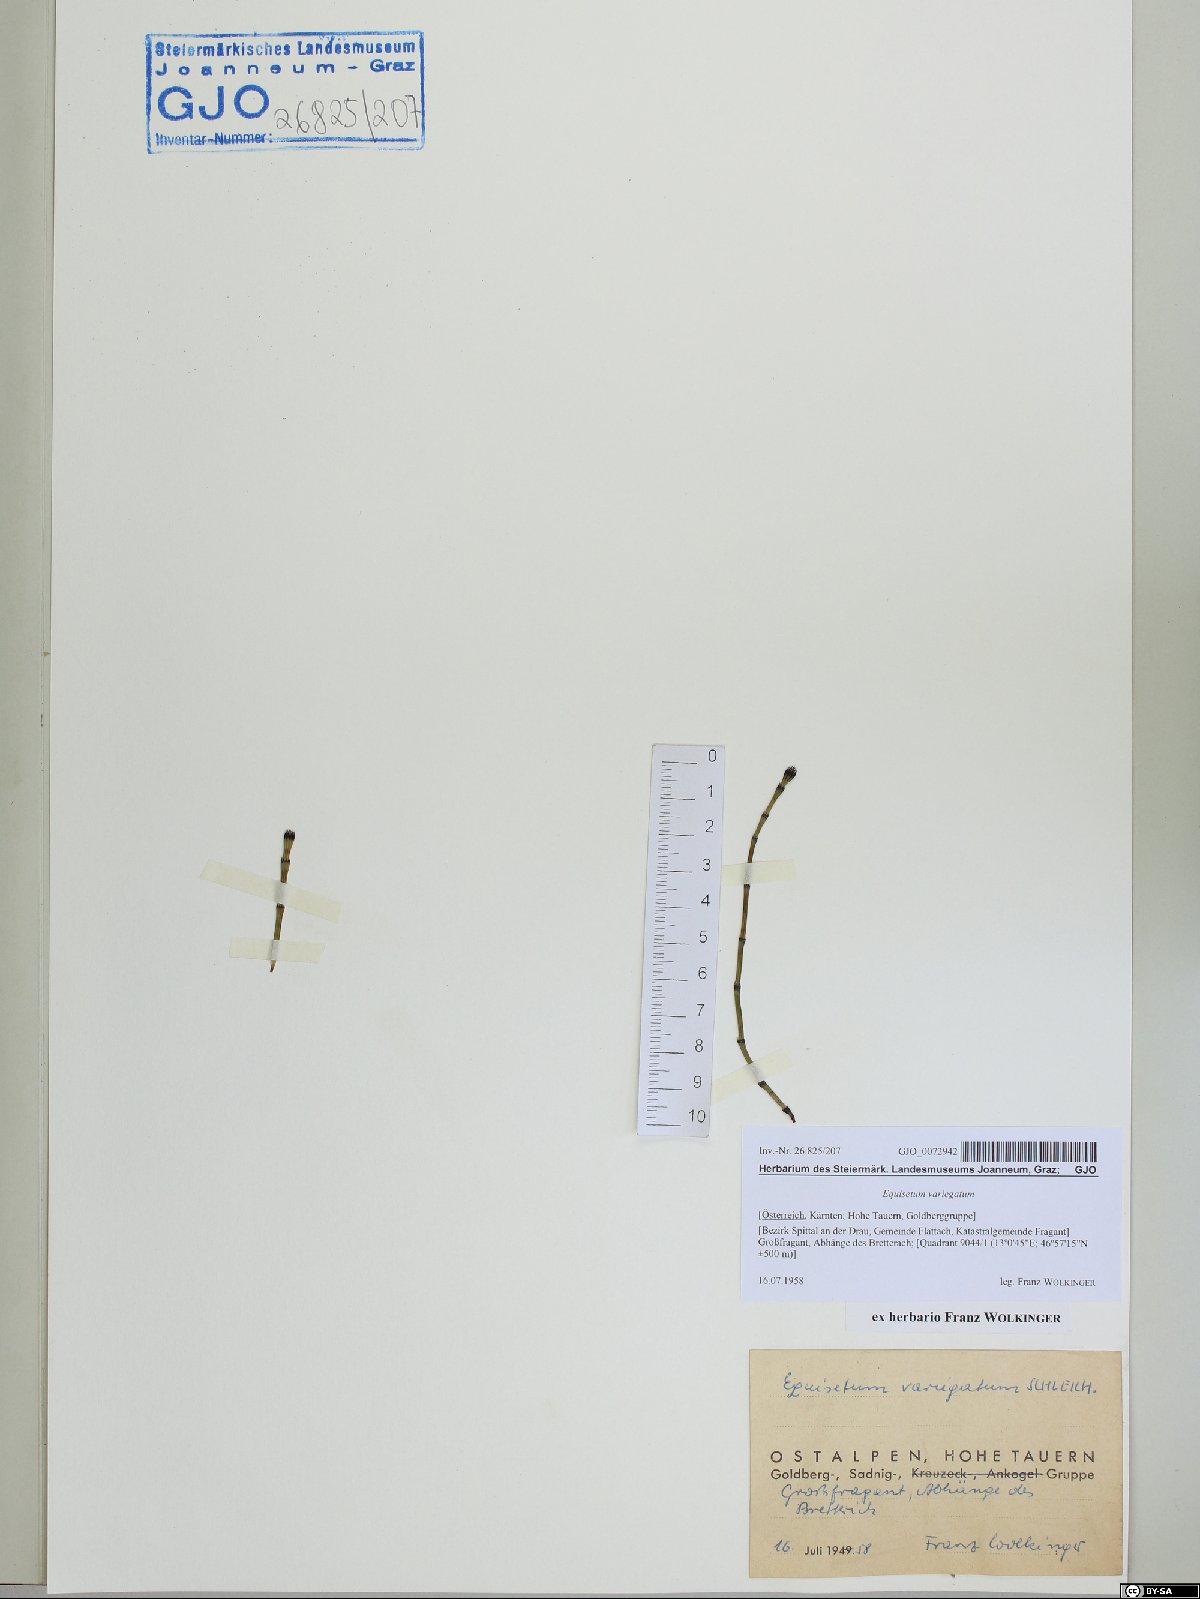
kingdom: Plantae
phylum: Tracheophyta
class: Polypodiopsida
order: Equisetales
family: Equisetaceae
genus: Equisetum
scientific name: Equisetum variegatum
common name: Variegated horsetail
